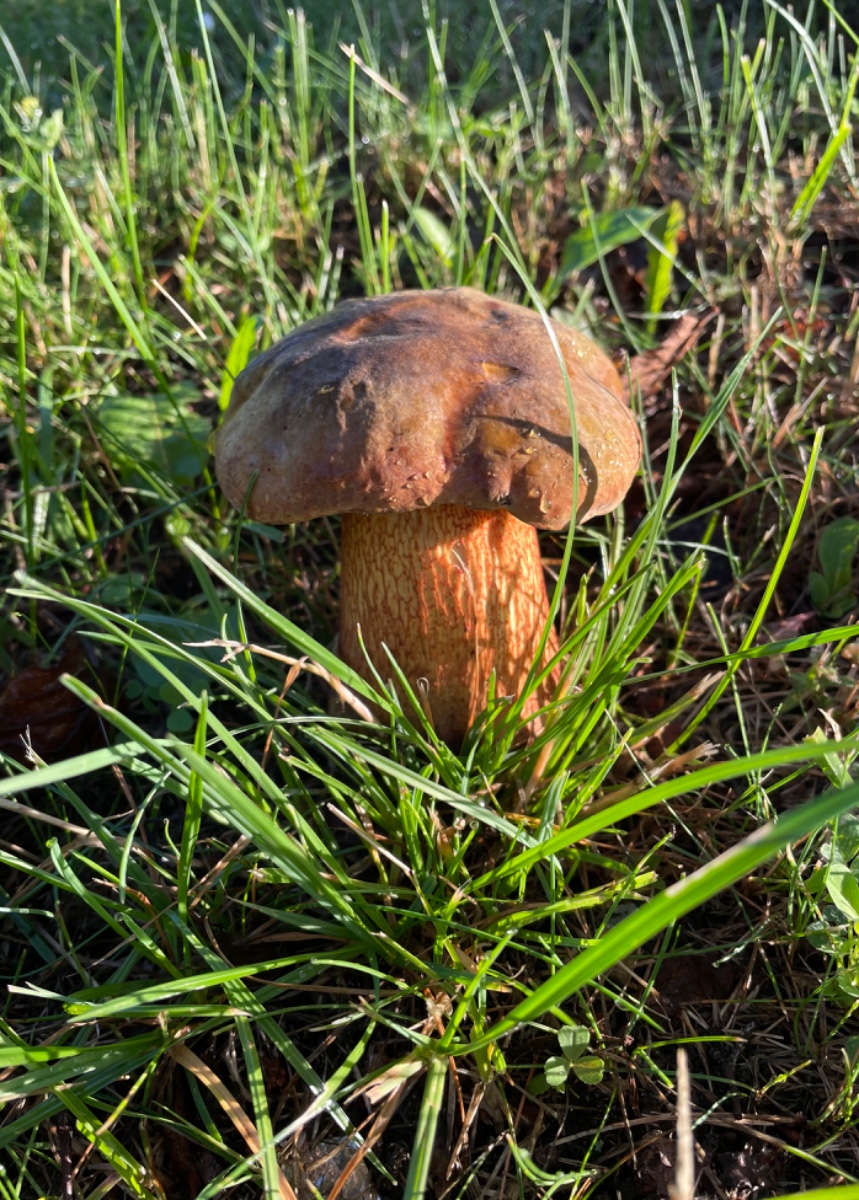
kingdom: Fungi
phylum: Basidiomycota
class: Agaricomycetes
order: Boletales
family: Boletaceae
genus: Suillellus
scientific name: Suillellus luridus
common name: netstokket indigorørhat
